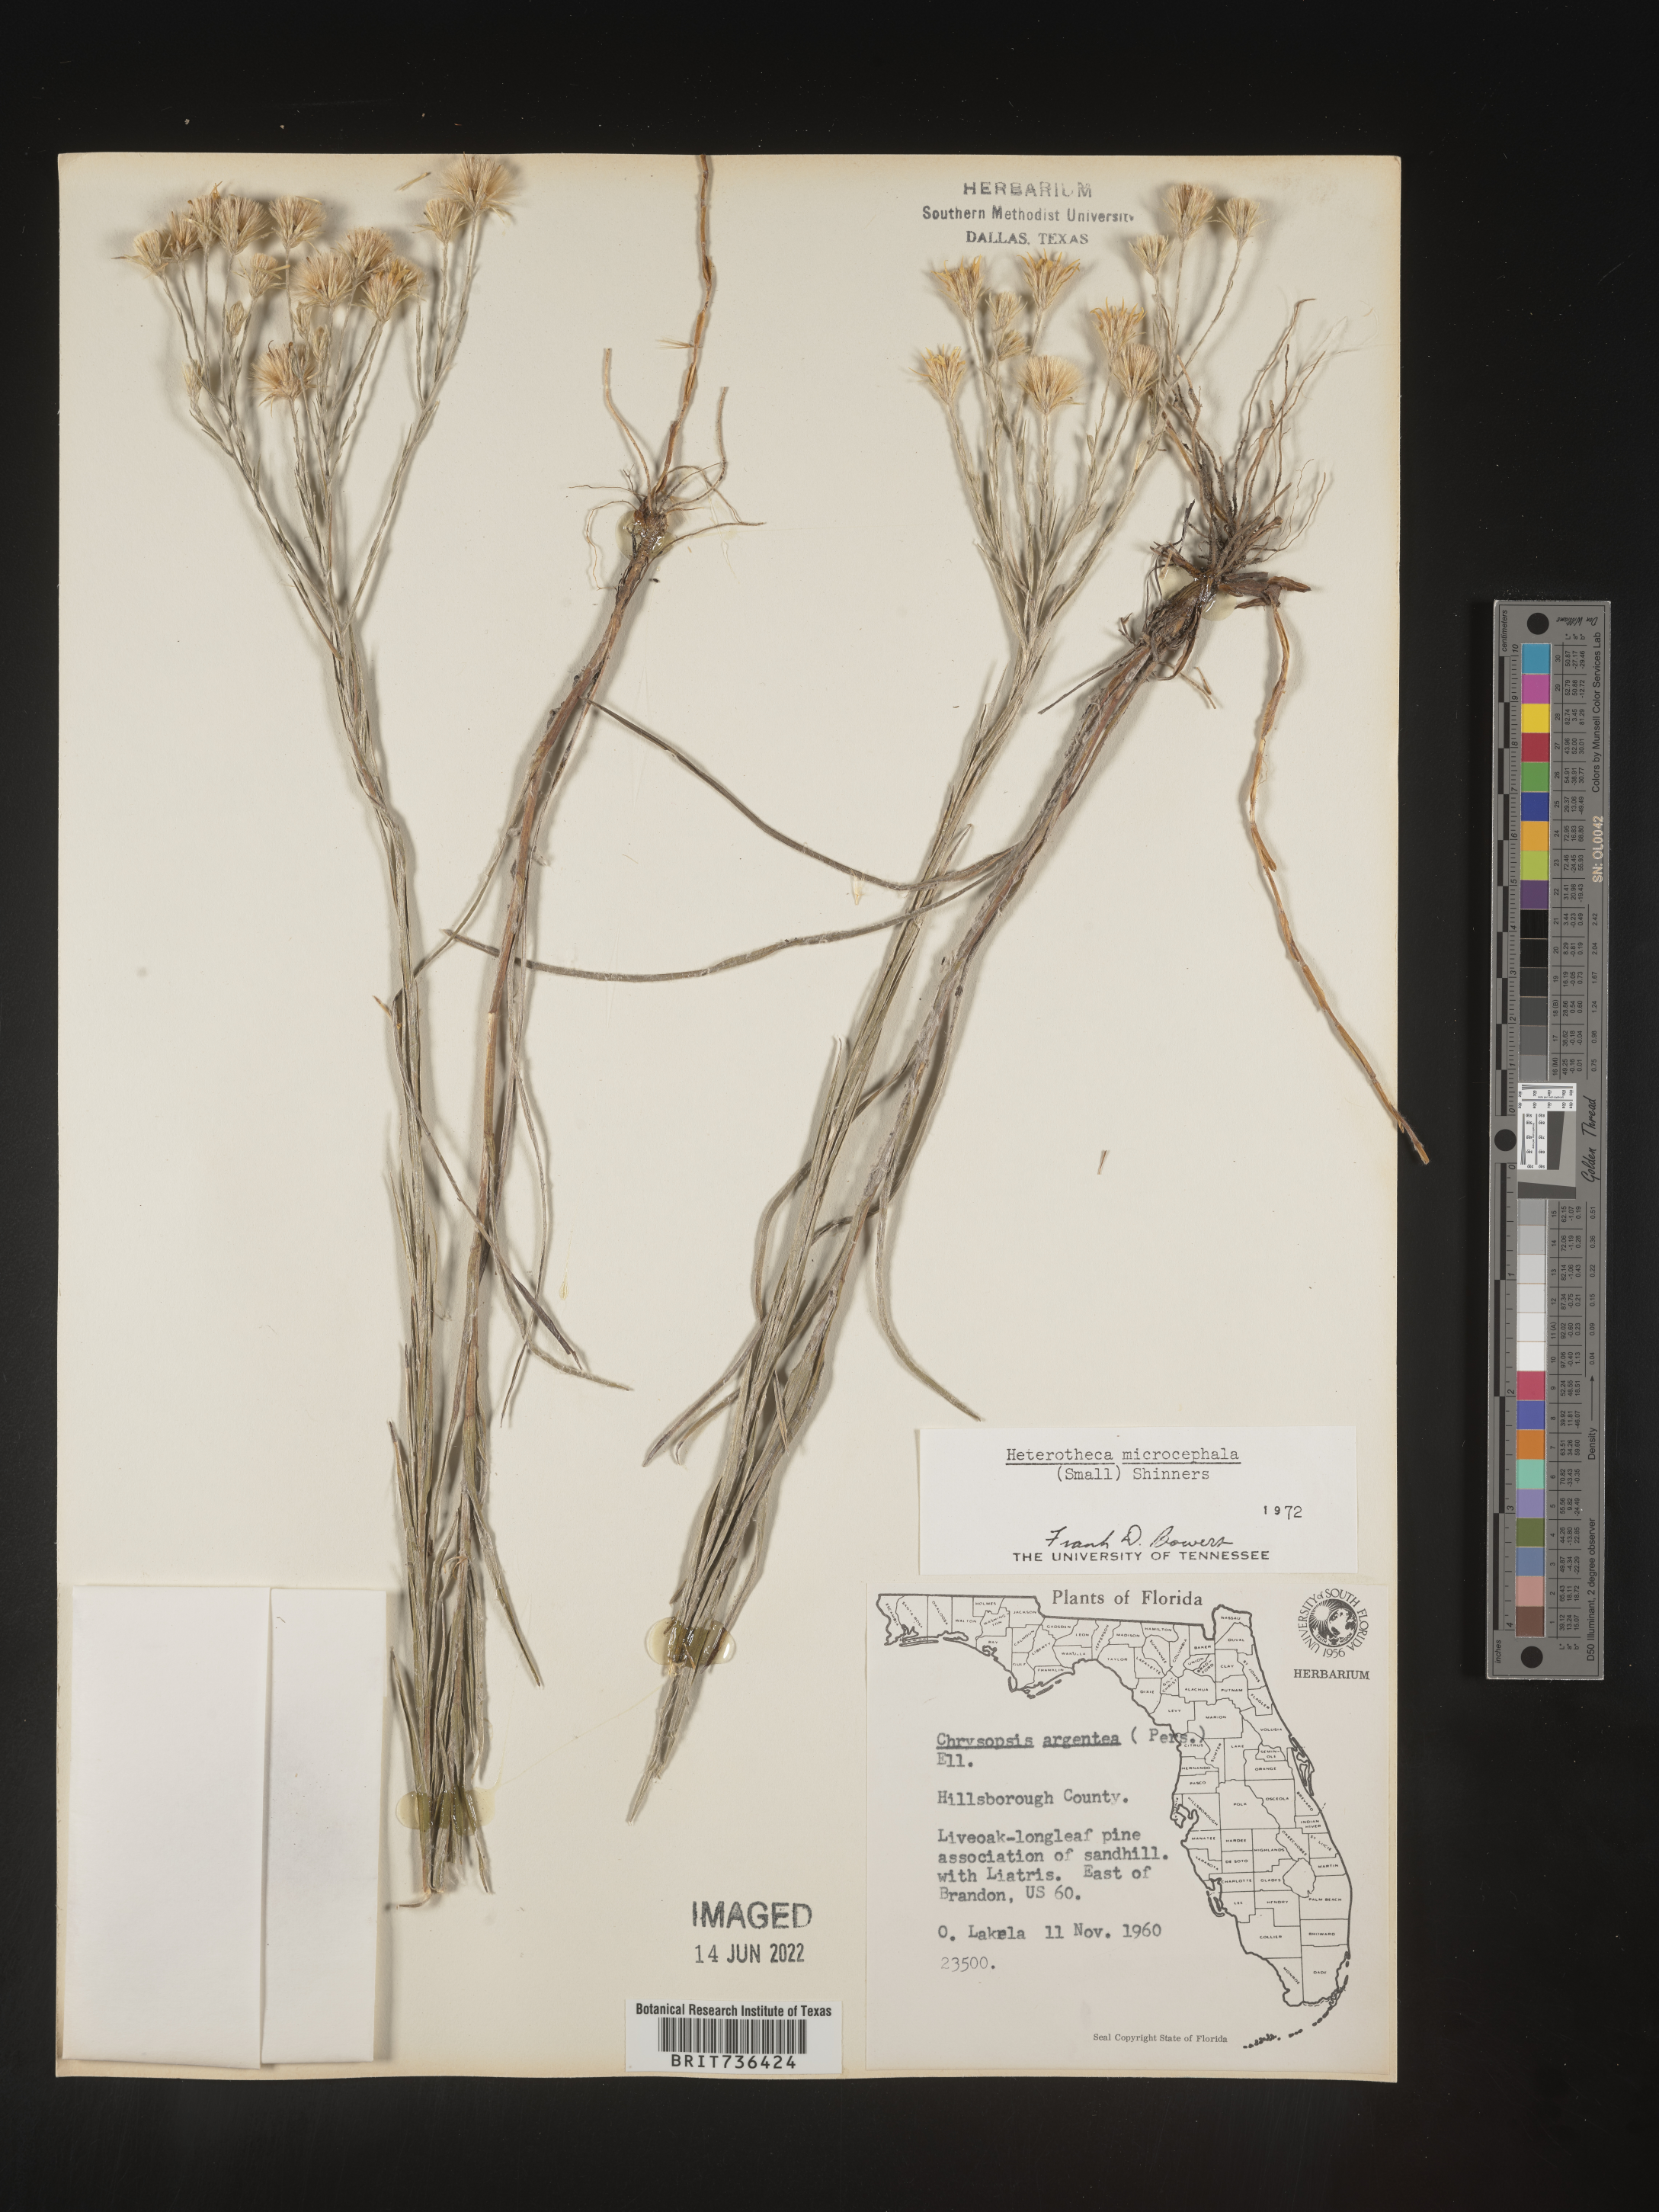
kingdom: Plantae
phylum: Tracheophyta
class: Magnoliopsida
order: Asterales
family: Asteraceae
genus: Pityopsis
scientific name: Pityopsis tracyi
